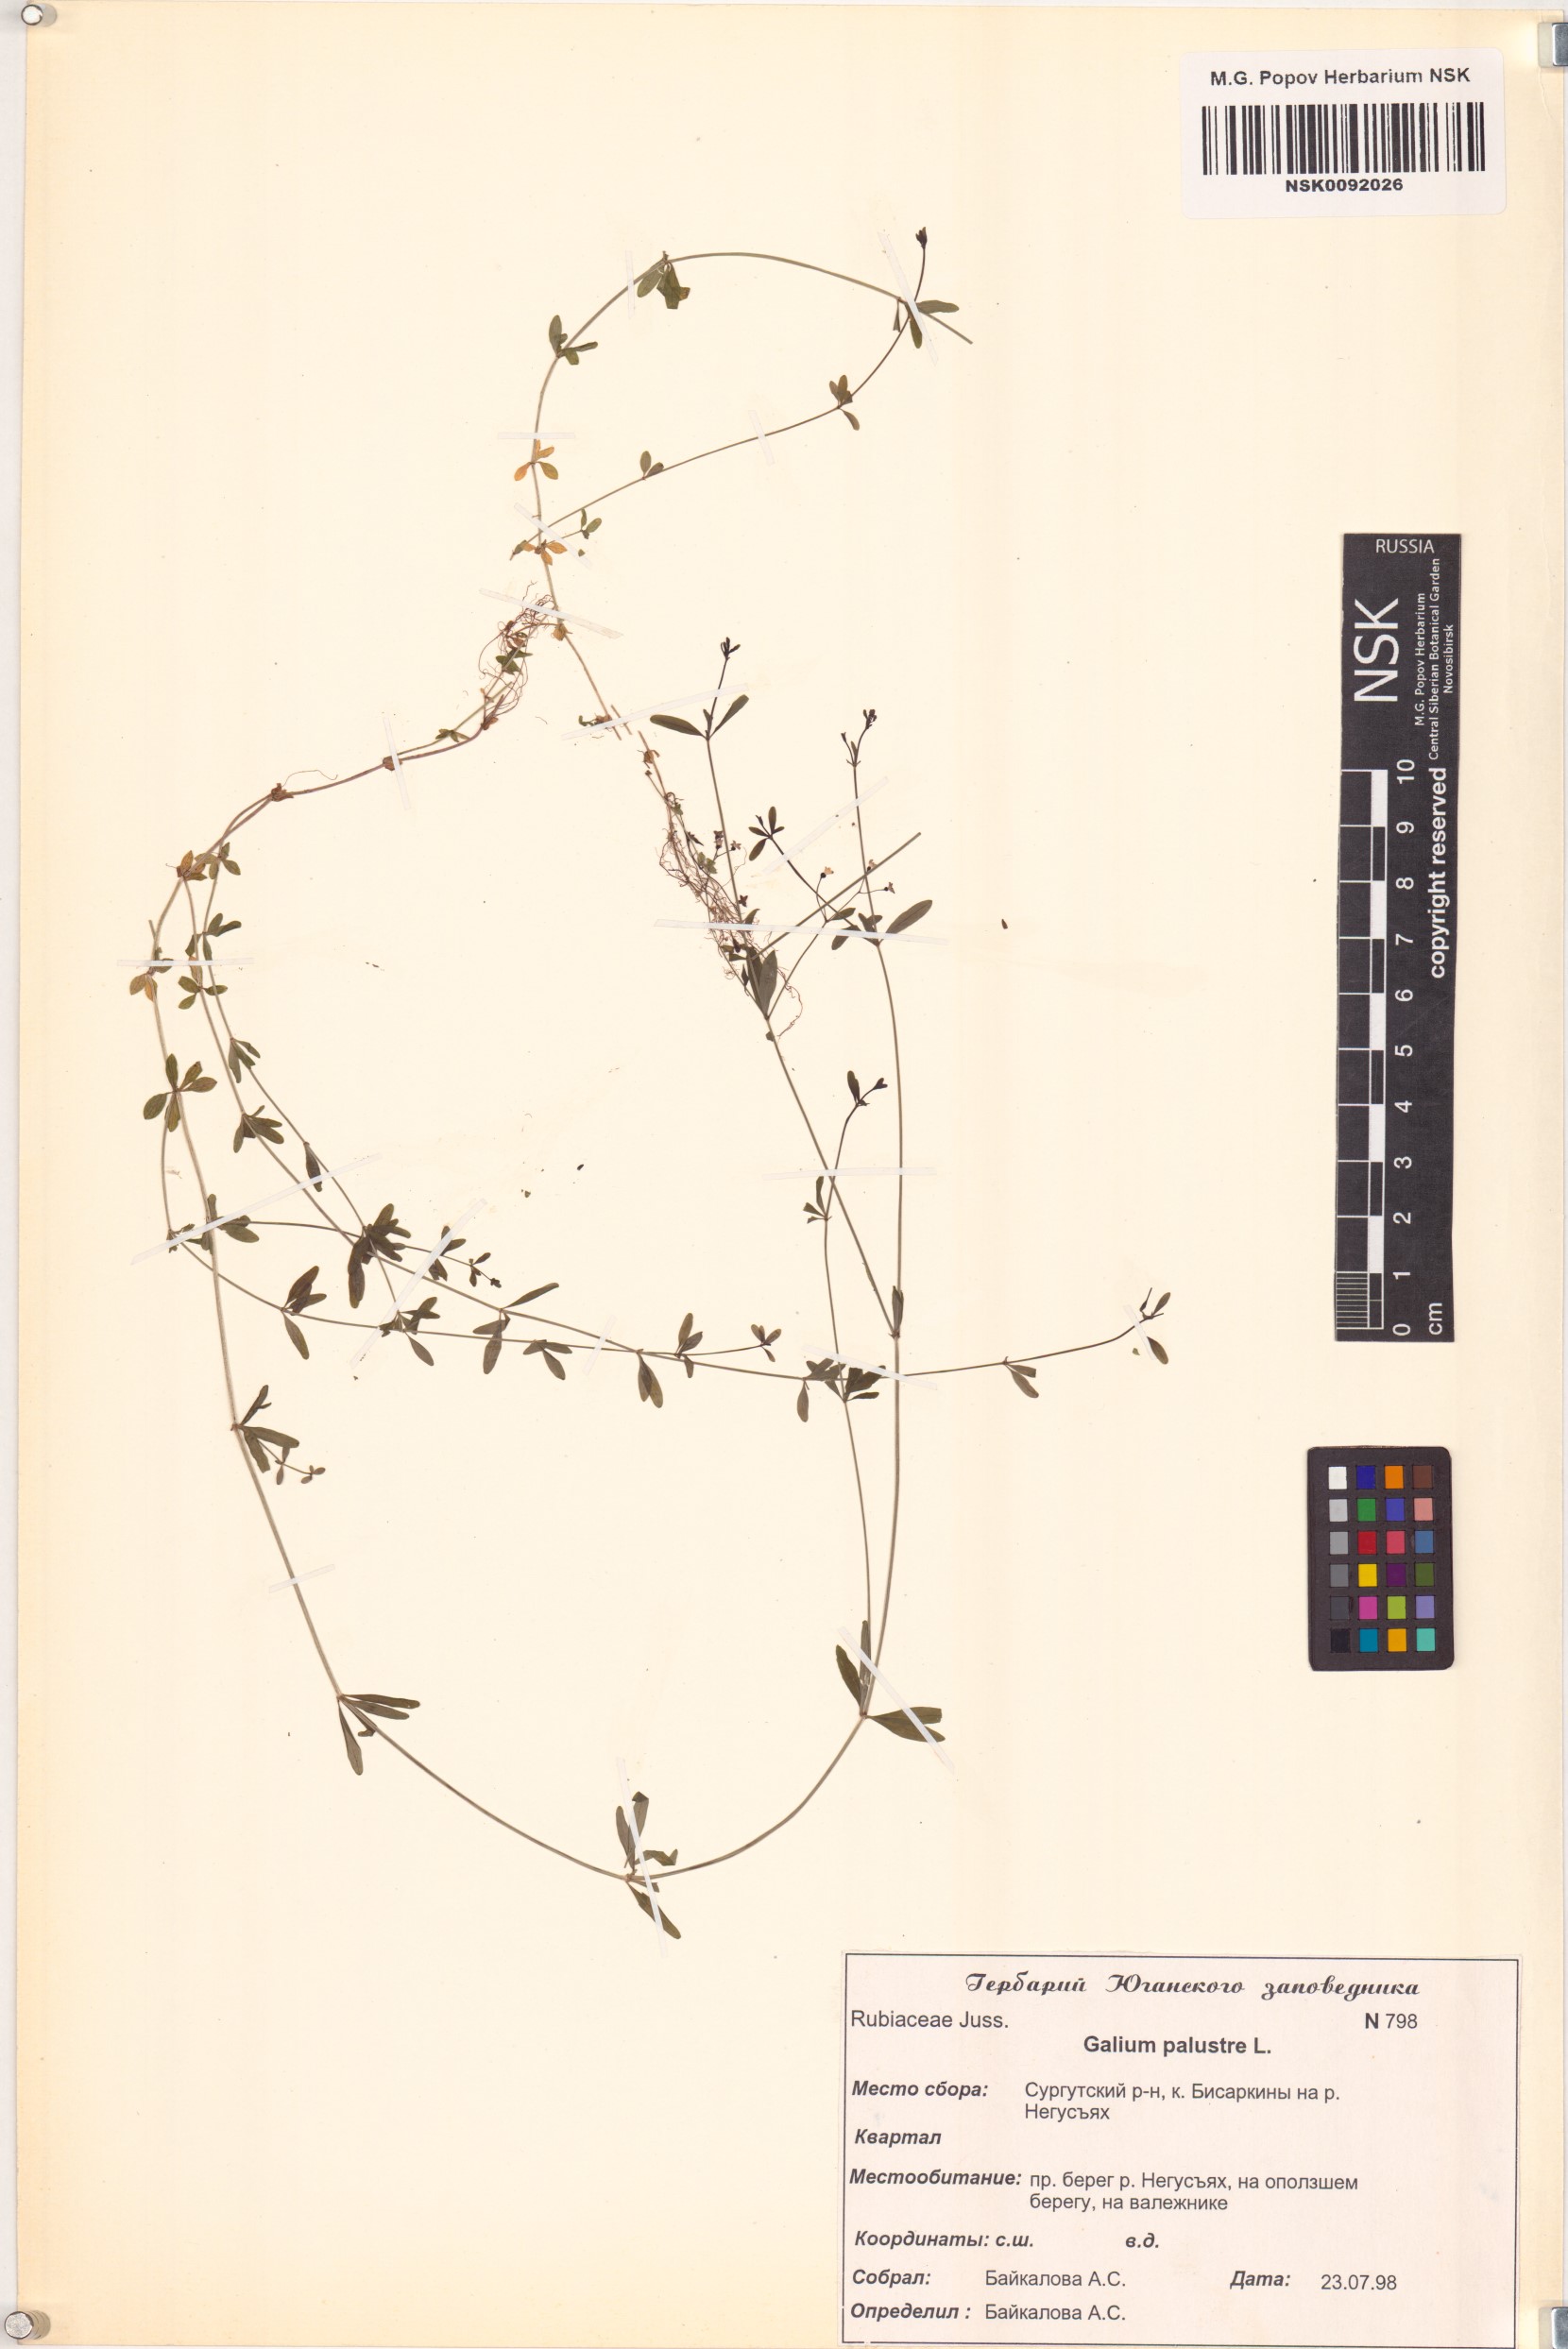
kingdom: Plantae
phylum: Tracheophyta
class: Magnoliopsida
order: Gentianales
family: Rubiaceae
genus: Galium
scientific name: Galium palustre
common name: Common marsh-bedstraw
